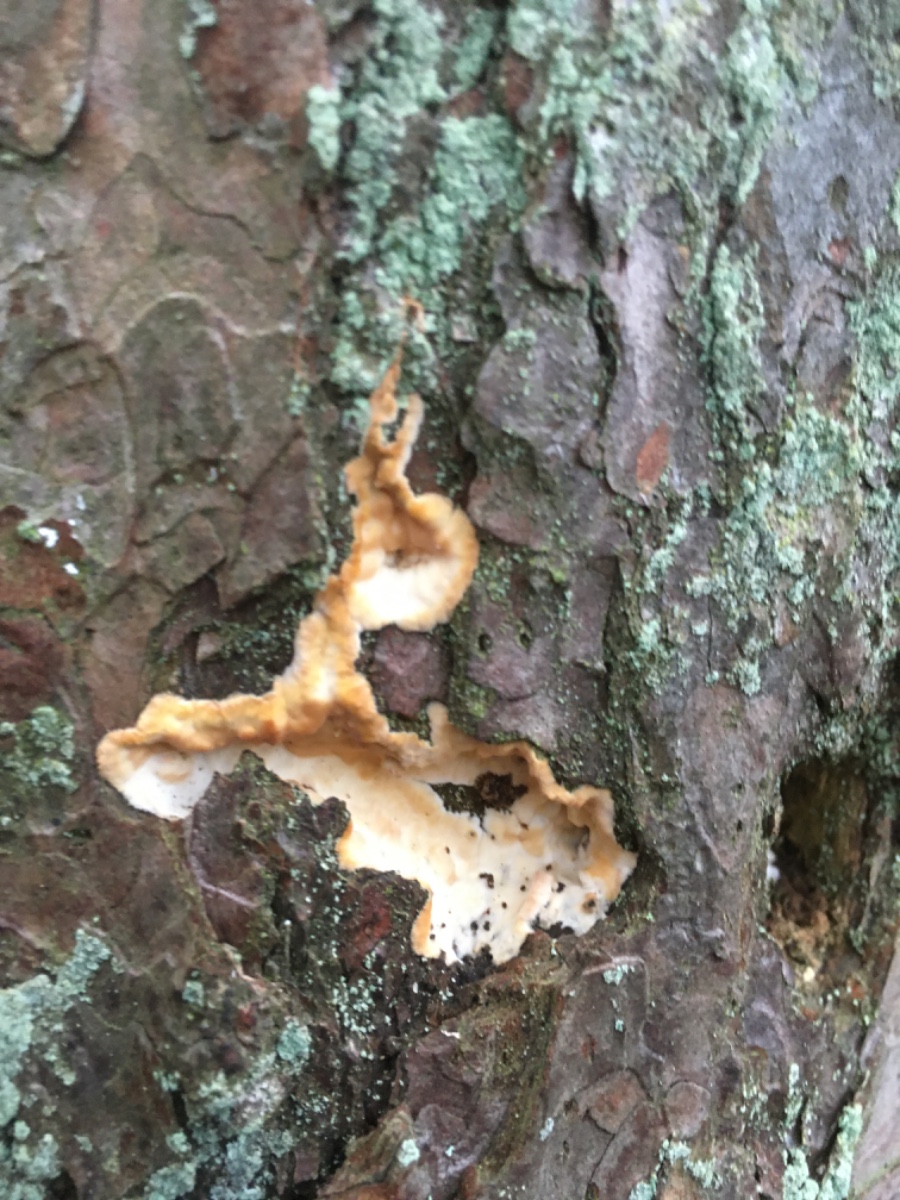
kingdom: Fungi
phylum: Basidiomycota
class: Agaricomycetes
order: Corticiales
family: Corticiaceae
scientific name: Corticiaceae
